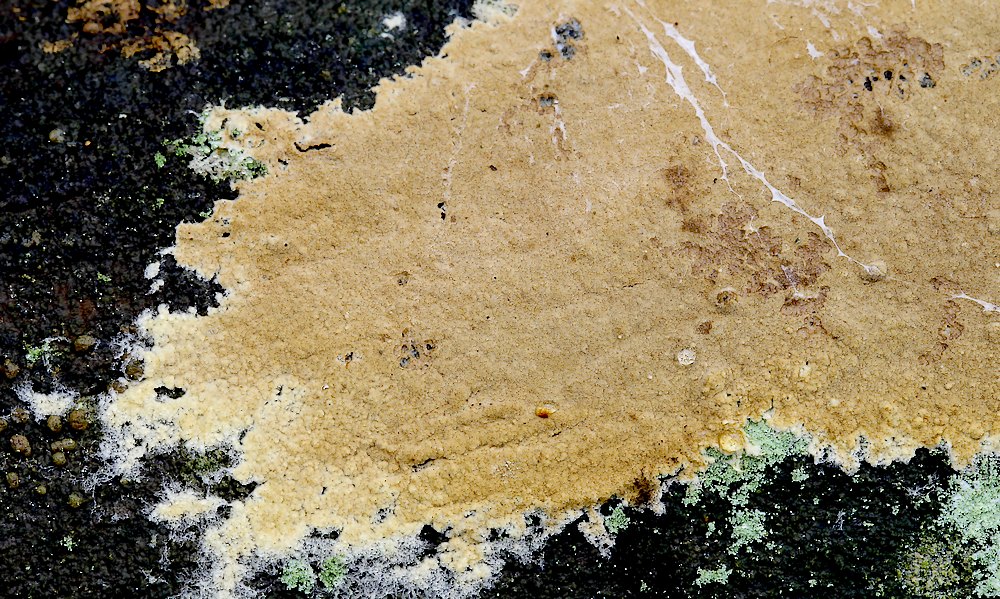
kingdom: Fungi
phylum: Basidiomycota
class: Agaricomycetes
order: Corticiales
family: Corticiaceae
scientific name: Corticiaceae
